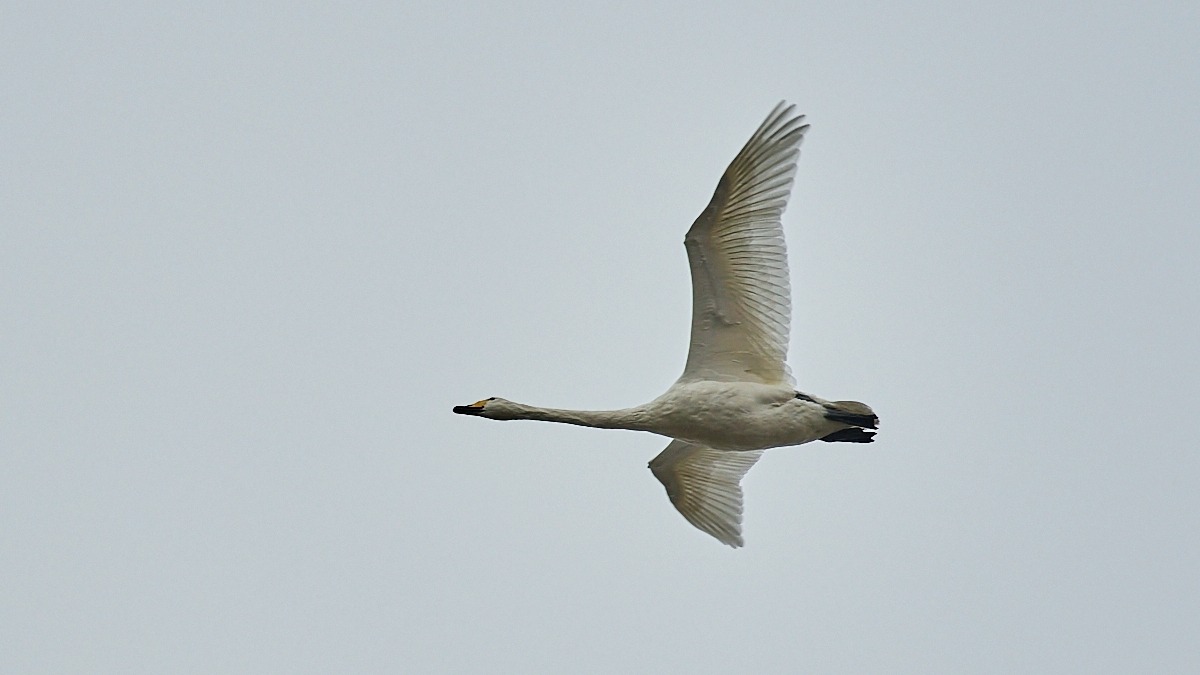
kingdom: Animalia
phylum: Chordata
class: Aves
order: Anseriformes
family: Anatidae
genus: Cygnus
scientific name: Cygnus cygnus
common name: Sangsvane
